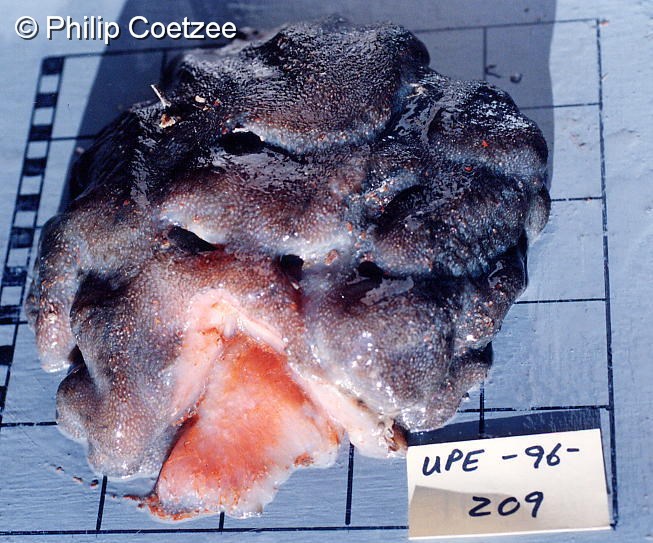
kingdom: Animalia
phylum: Chordata
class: Ascidiacea
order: Aplousobranchia
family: Pseudodistomidae
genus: Pseudodistoma
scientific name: Pseudodistoma
